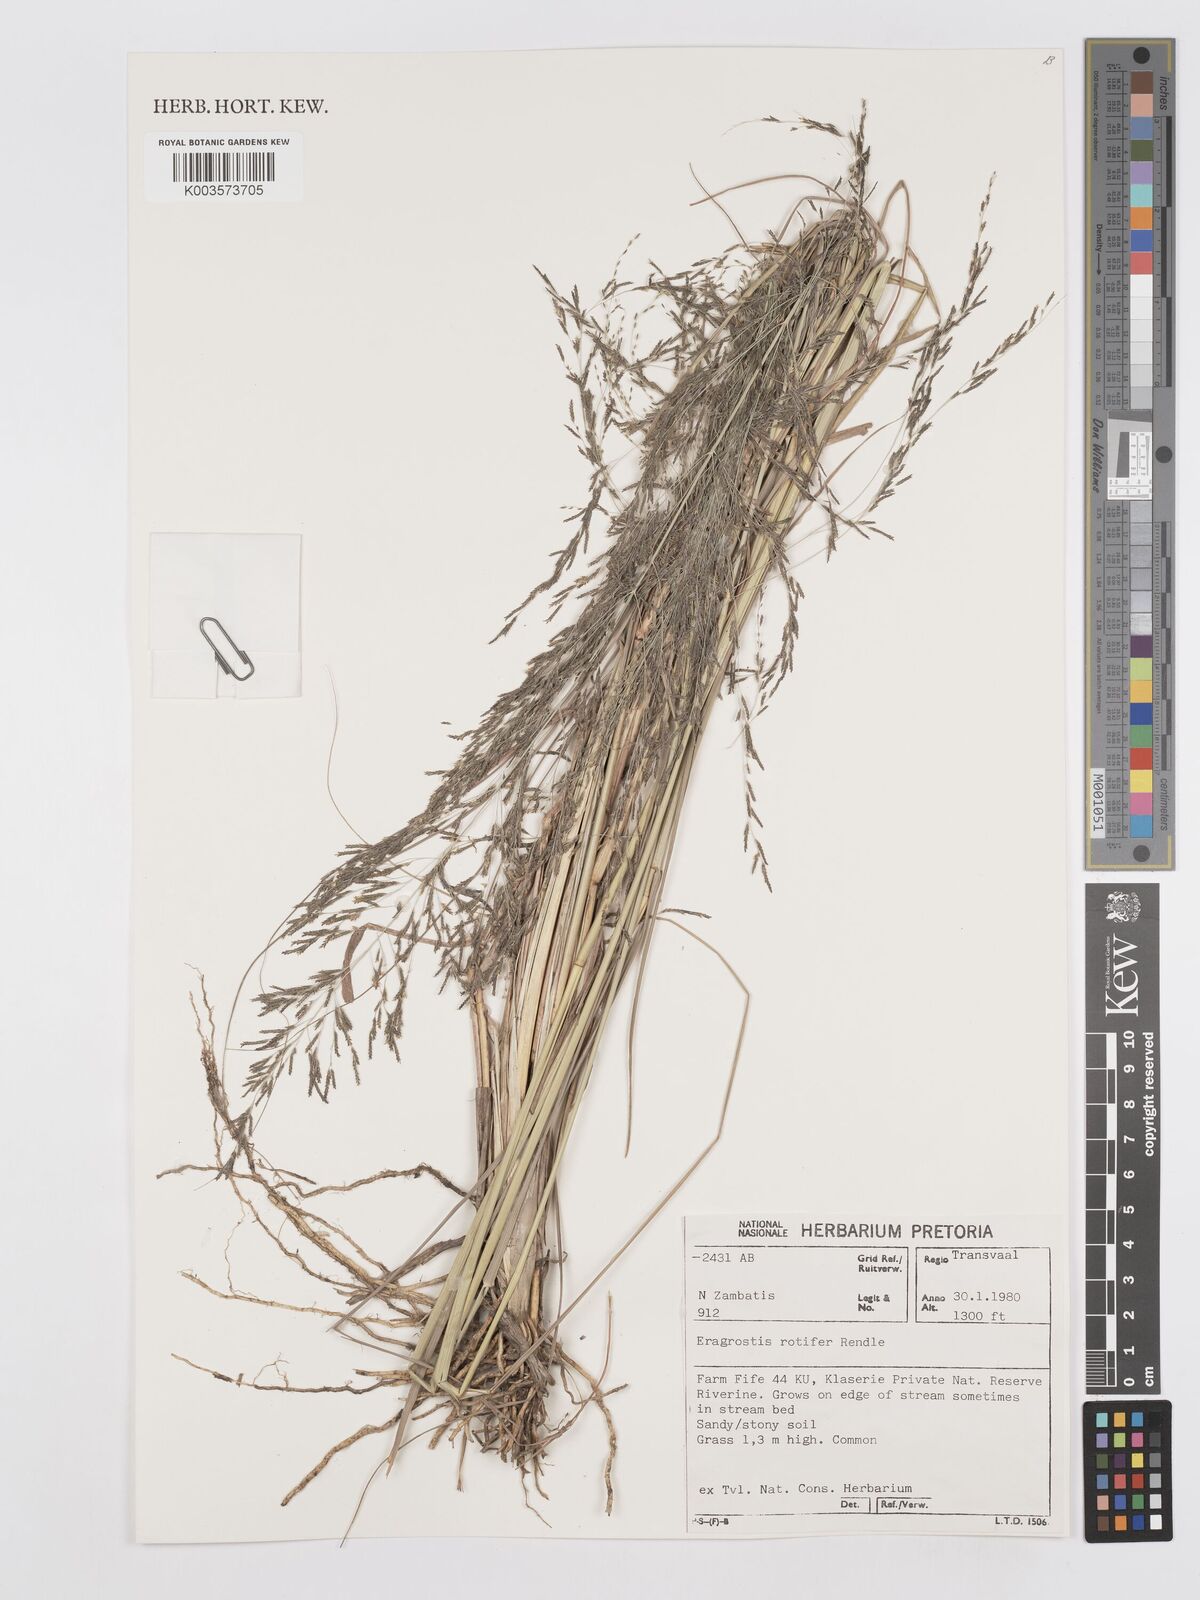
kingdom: Plantae
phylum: Tracheophyta
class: Liliopsida
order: Poales
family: Poaceae
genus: Eragrostis
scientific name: Eragrostis rotifer
